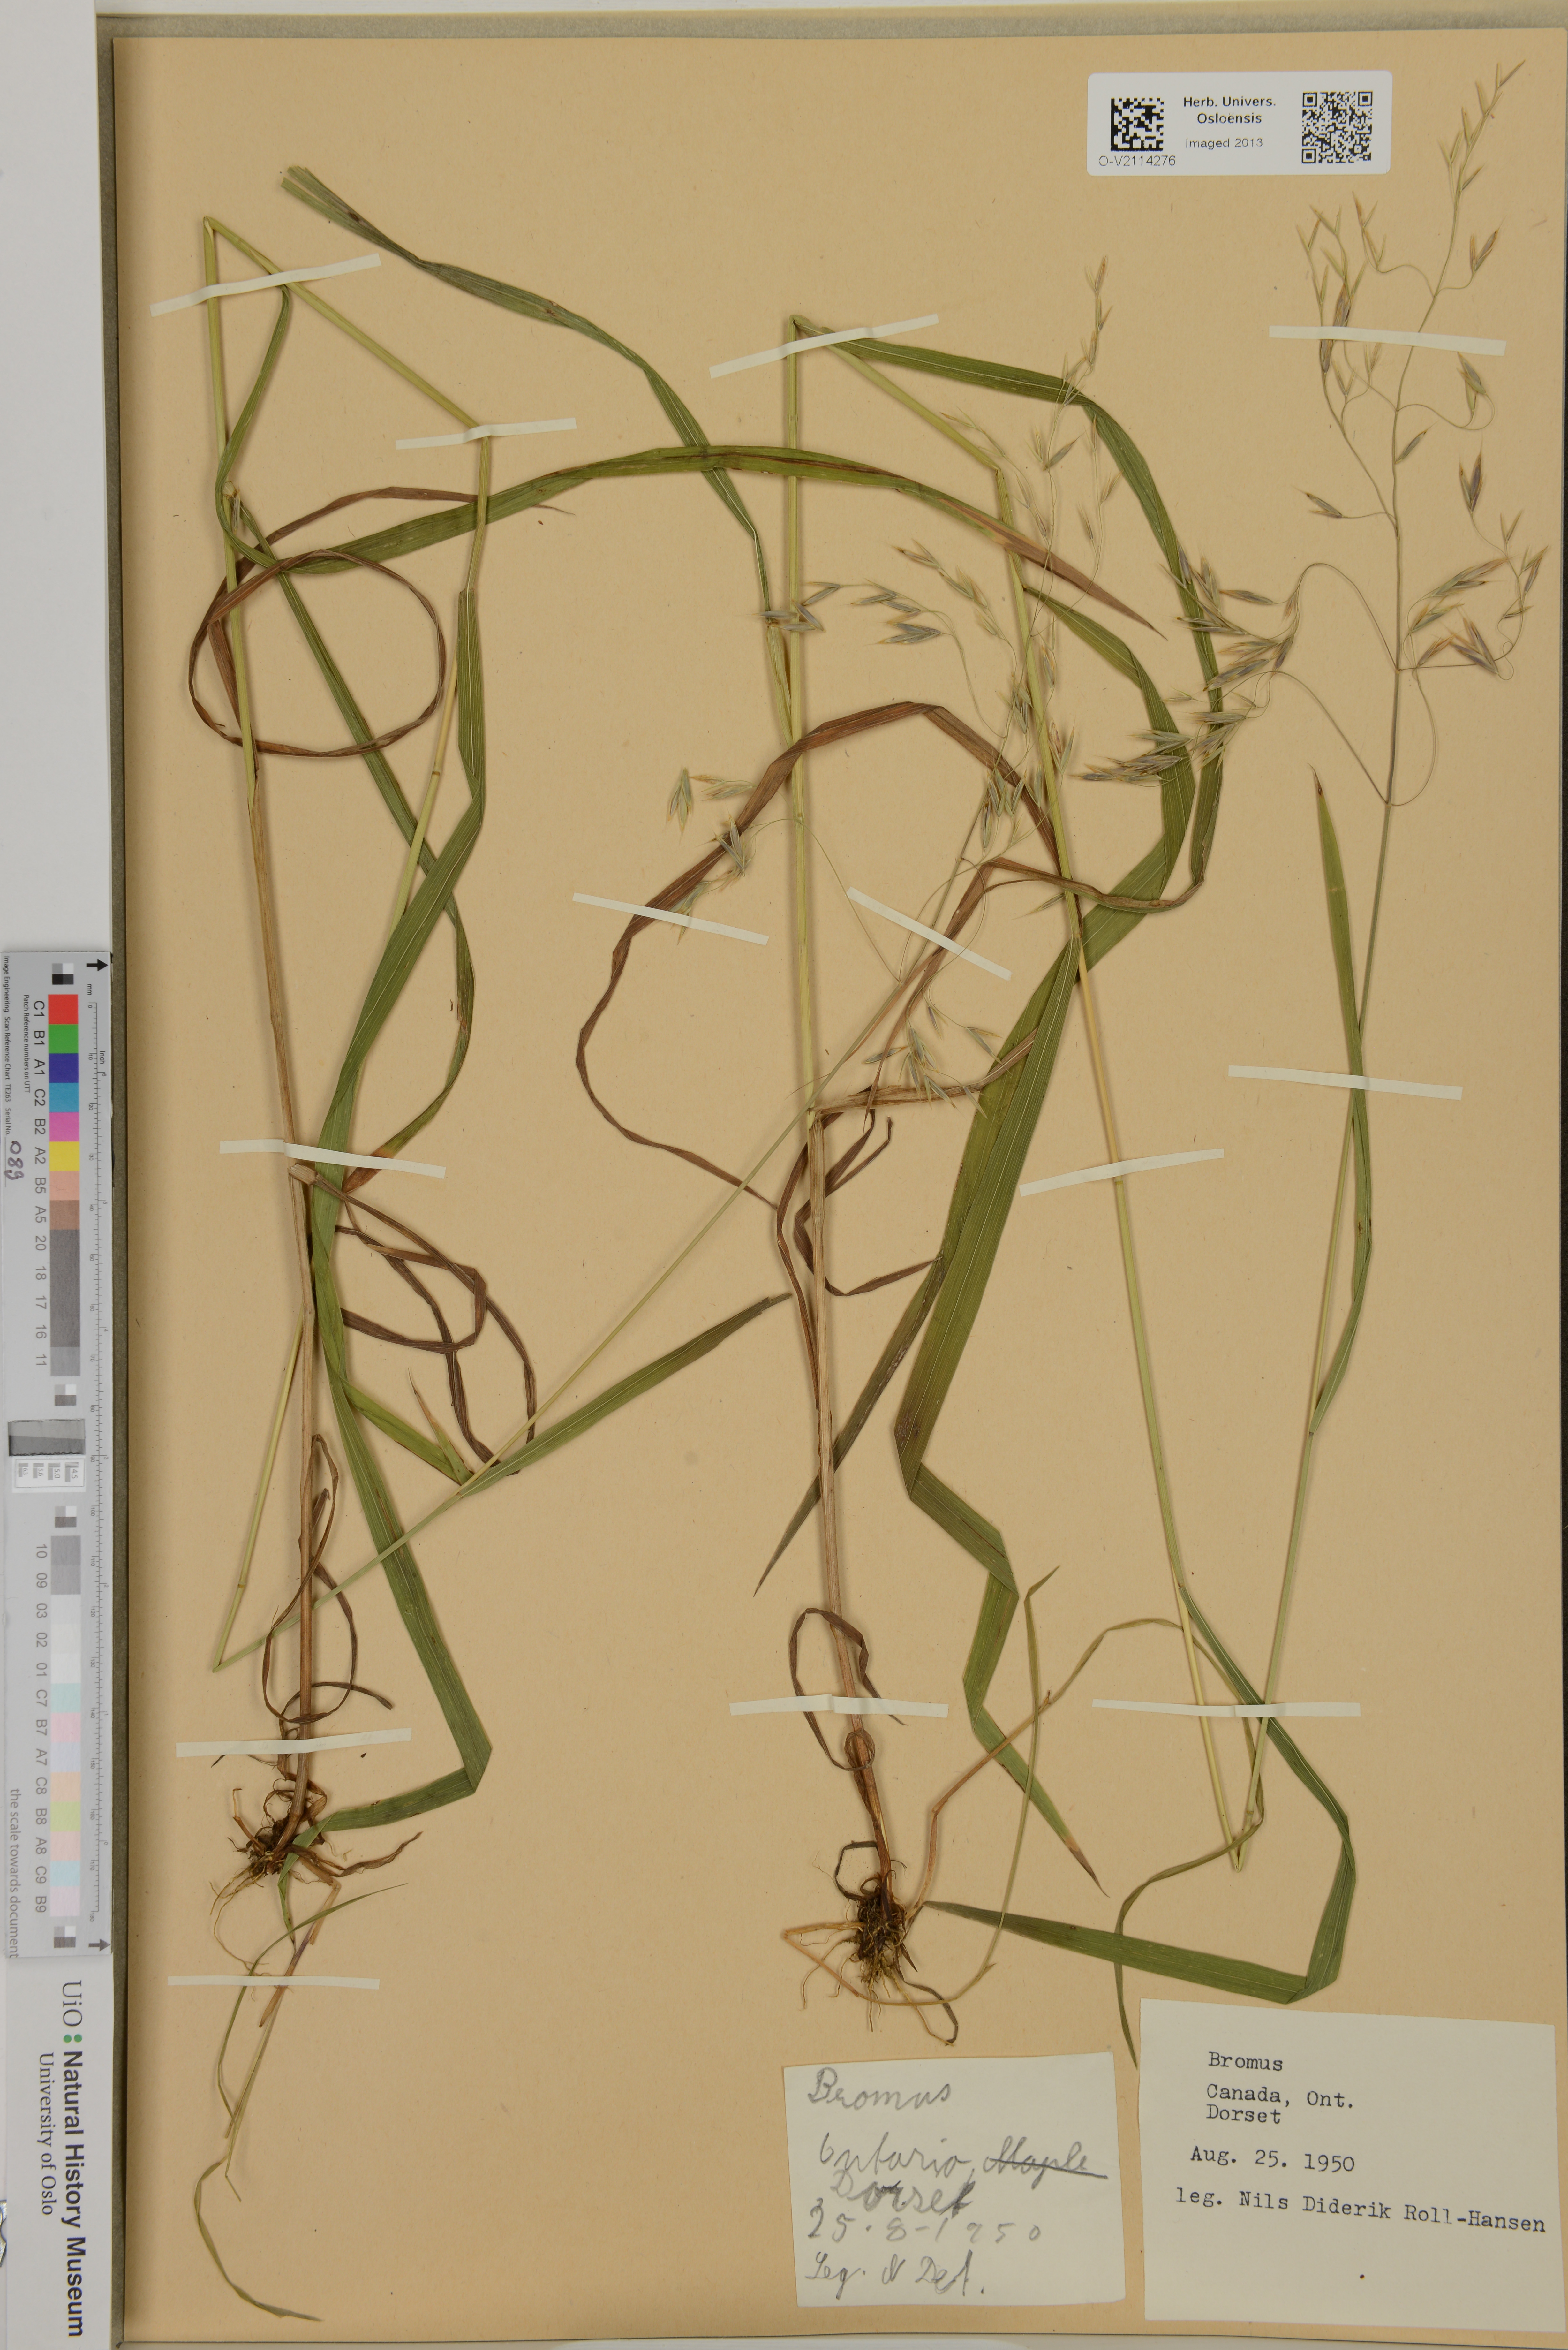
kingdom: Plantae
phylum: Tracheophyta
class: Liliopsida
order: Poales
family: Poaceae
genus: Bromus
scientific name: Bromus
